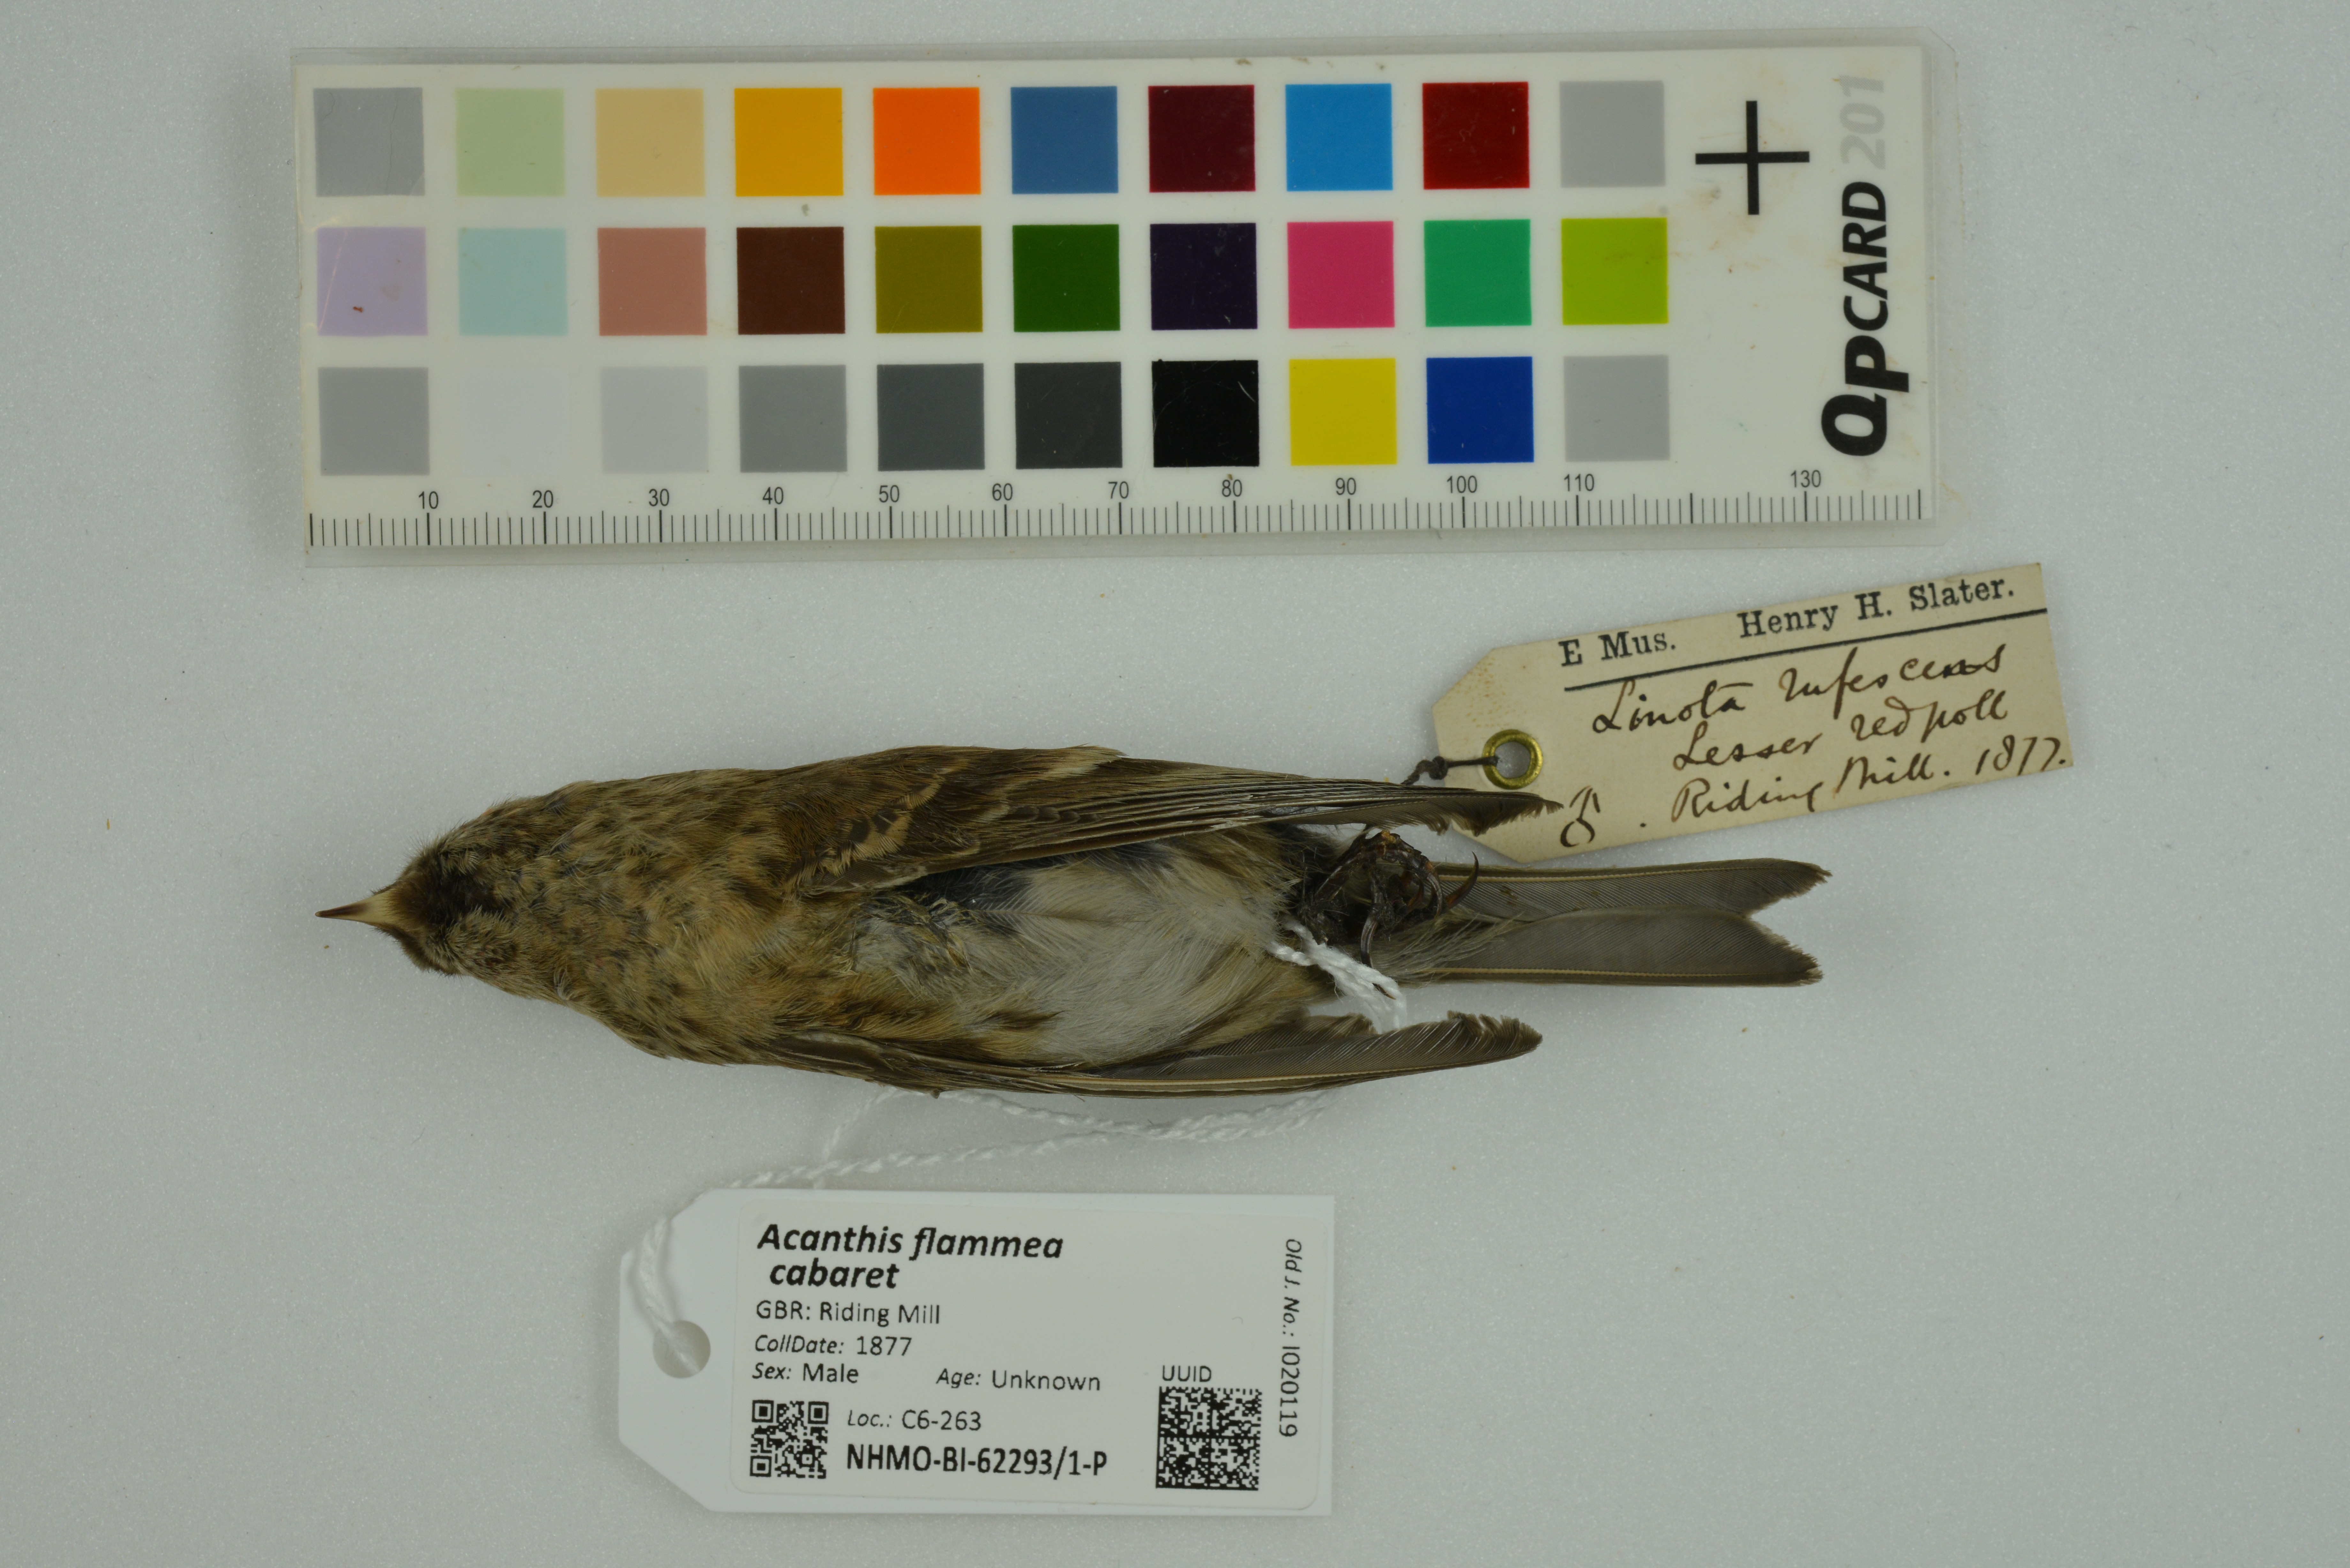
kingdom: Animalia
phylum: Chordata
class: Aves
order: Passeriformes
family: Fringillidae
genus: Acanthis
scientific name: Acanthis flammea
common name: Common redpoll
